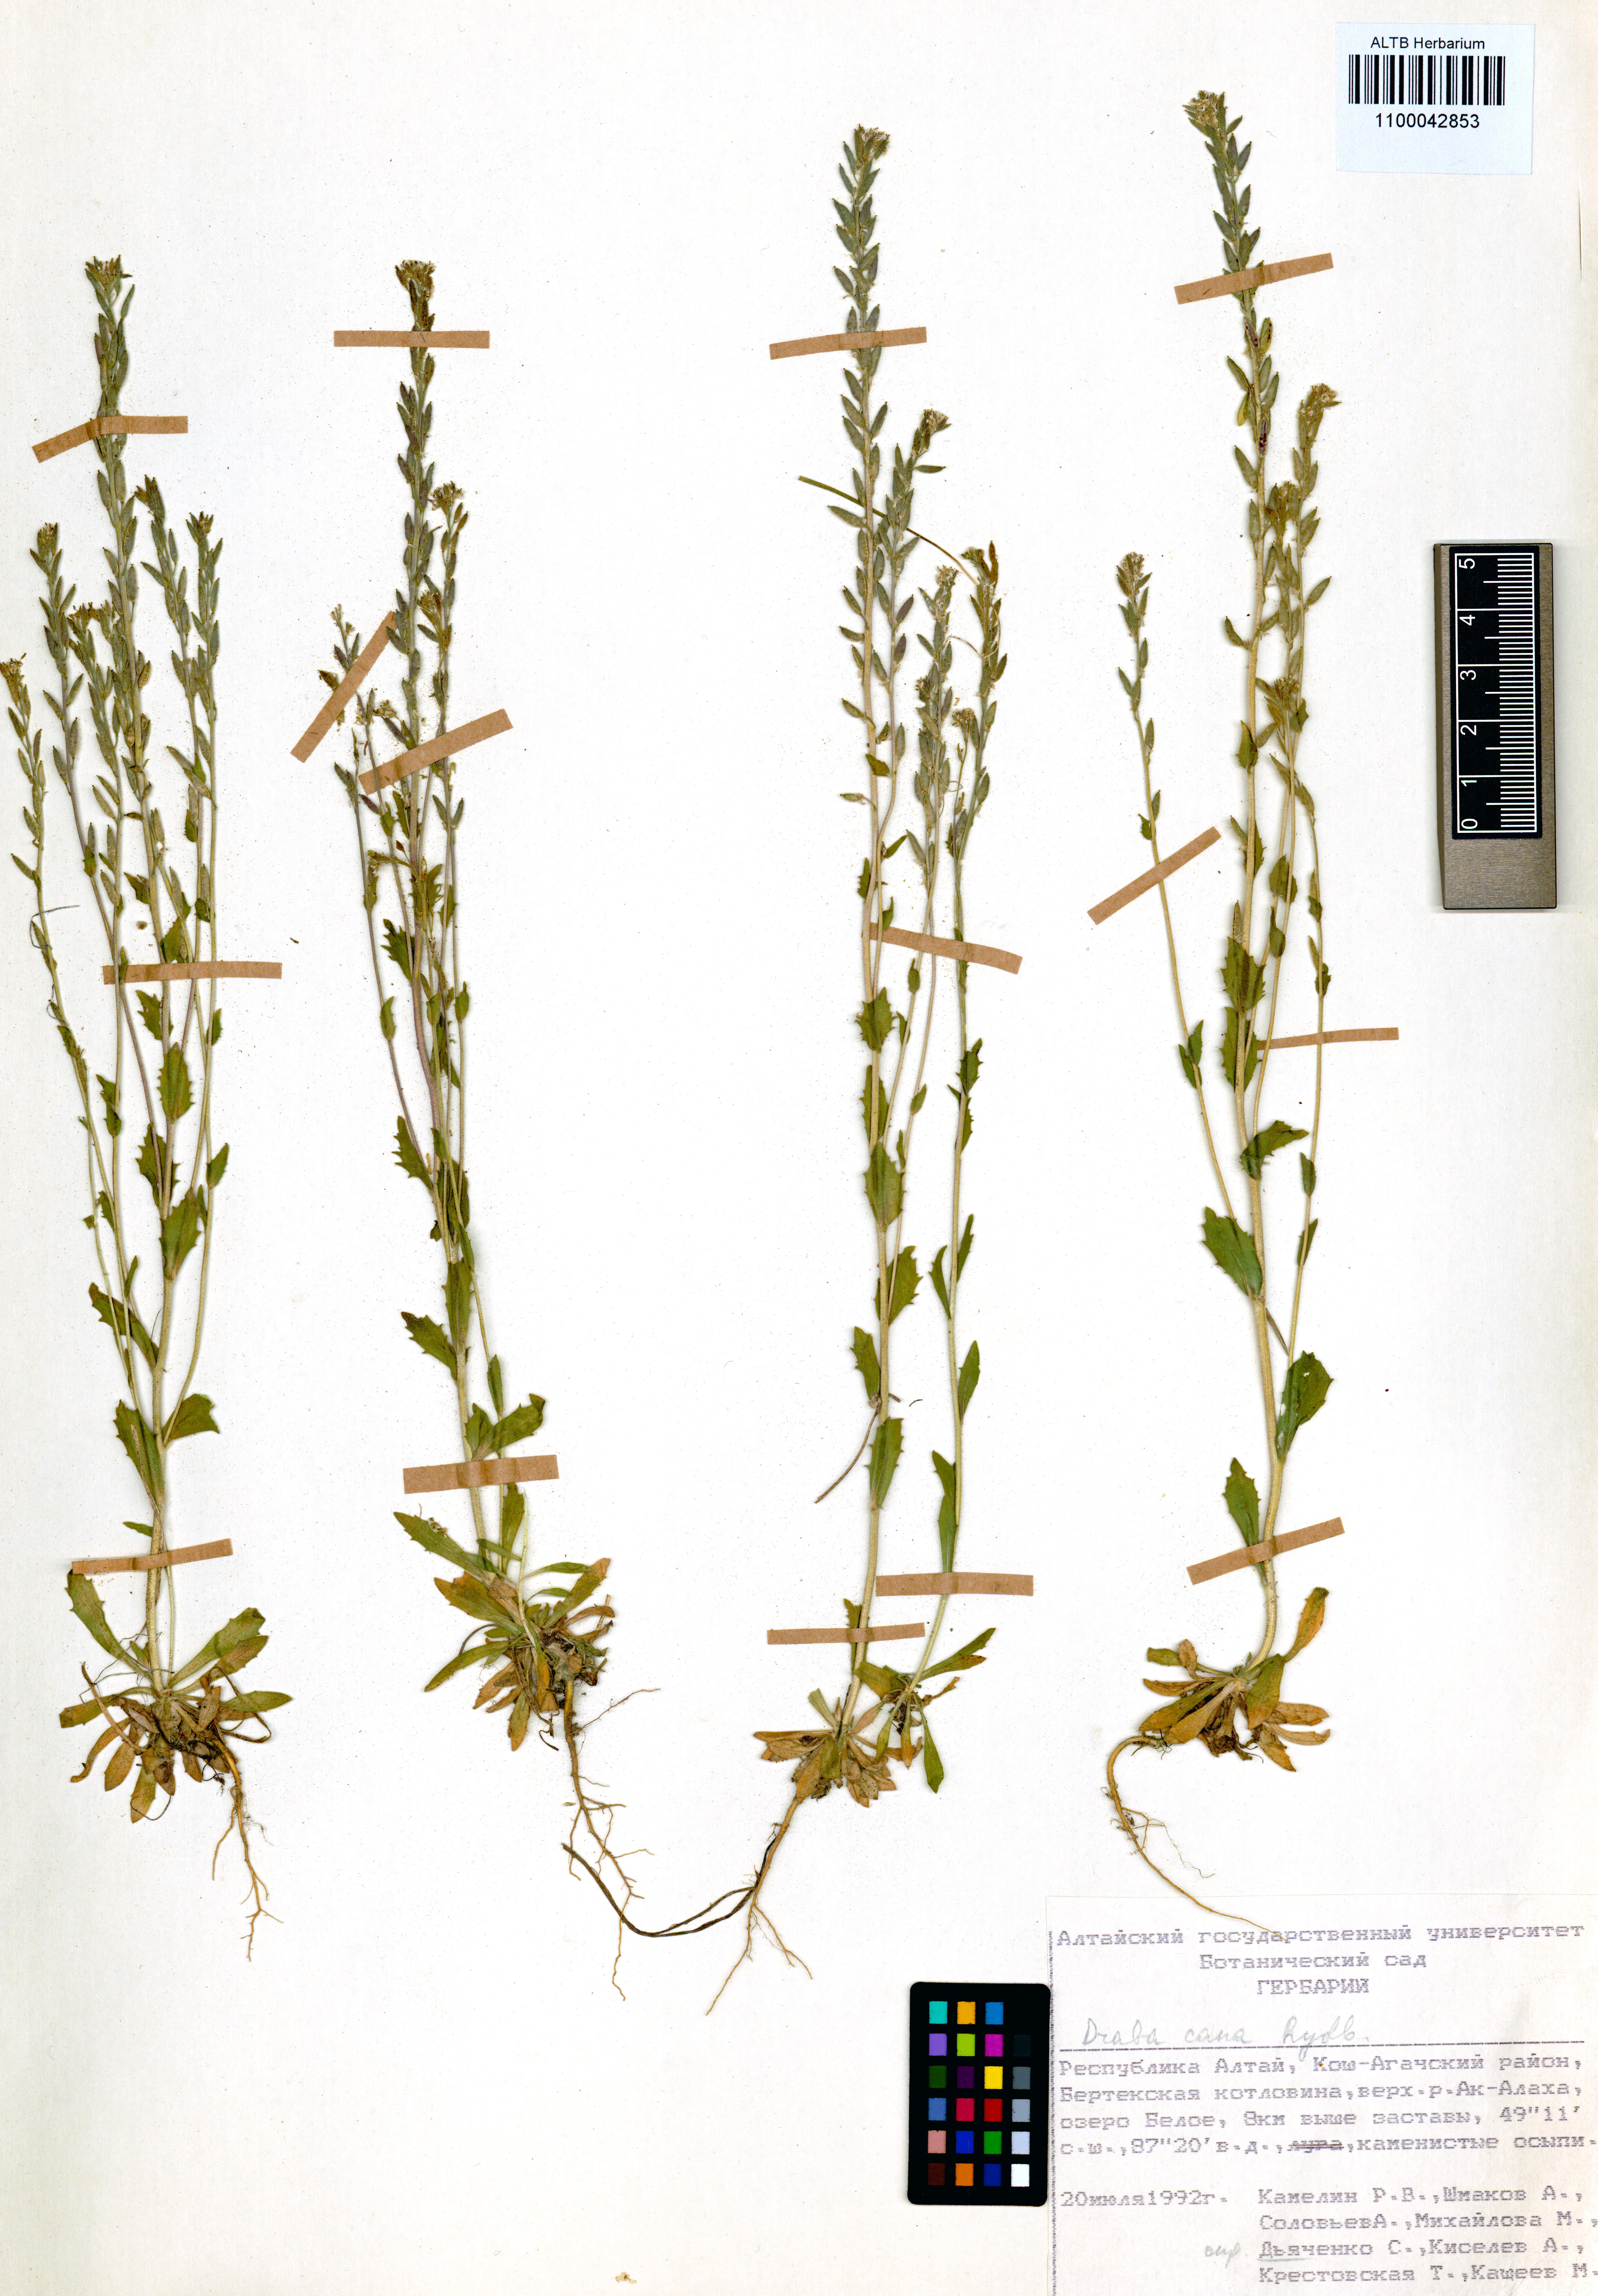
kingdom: Plantae
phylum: Tracheophyta
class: Magnoliopsida
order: Brassicales
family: Brassicaceae
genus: Draba
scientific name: Draba cana
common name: Hoary draba
